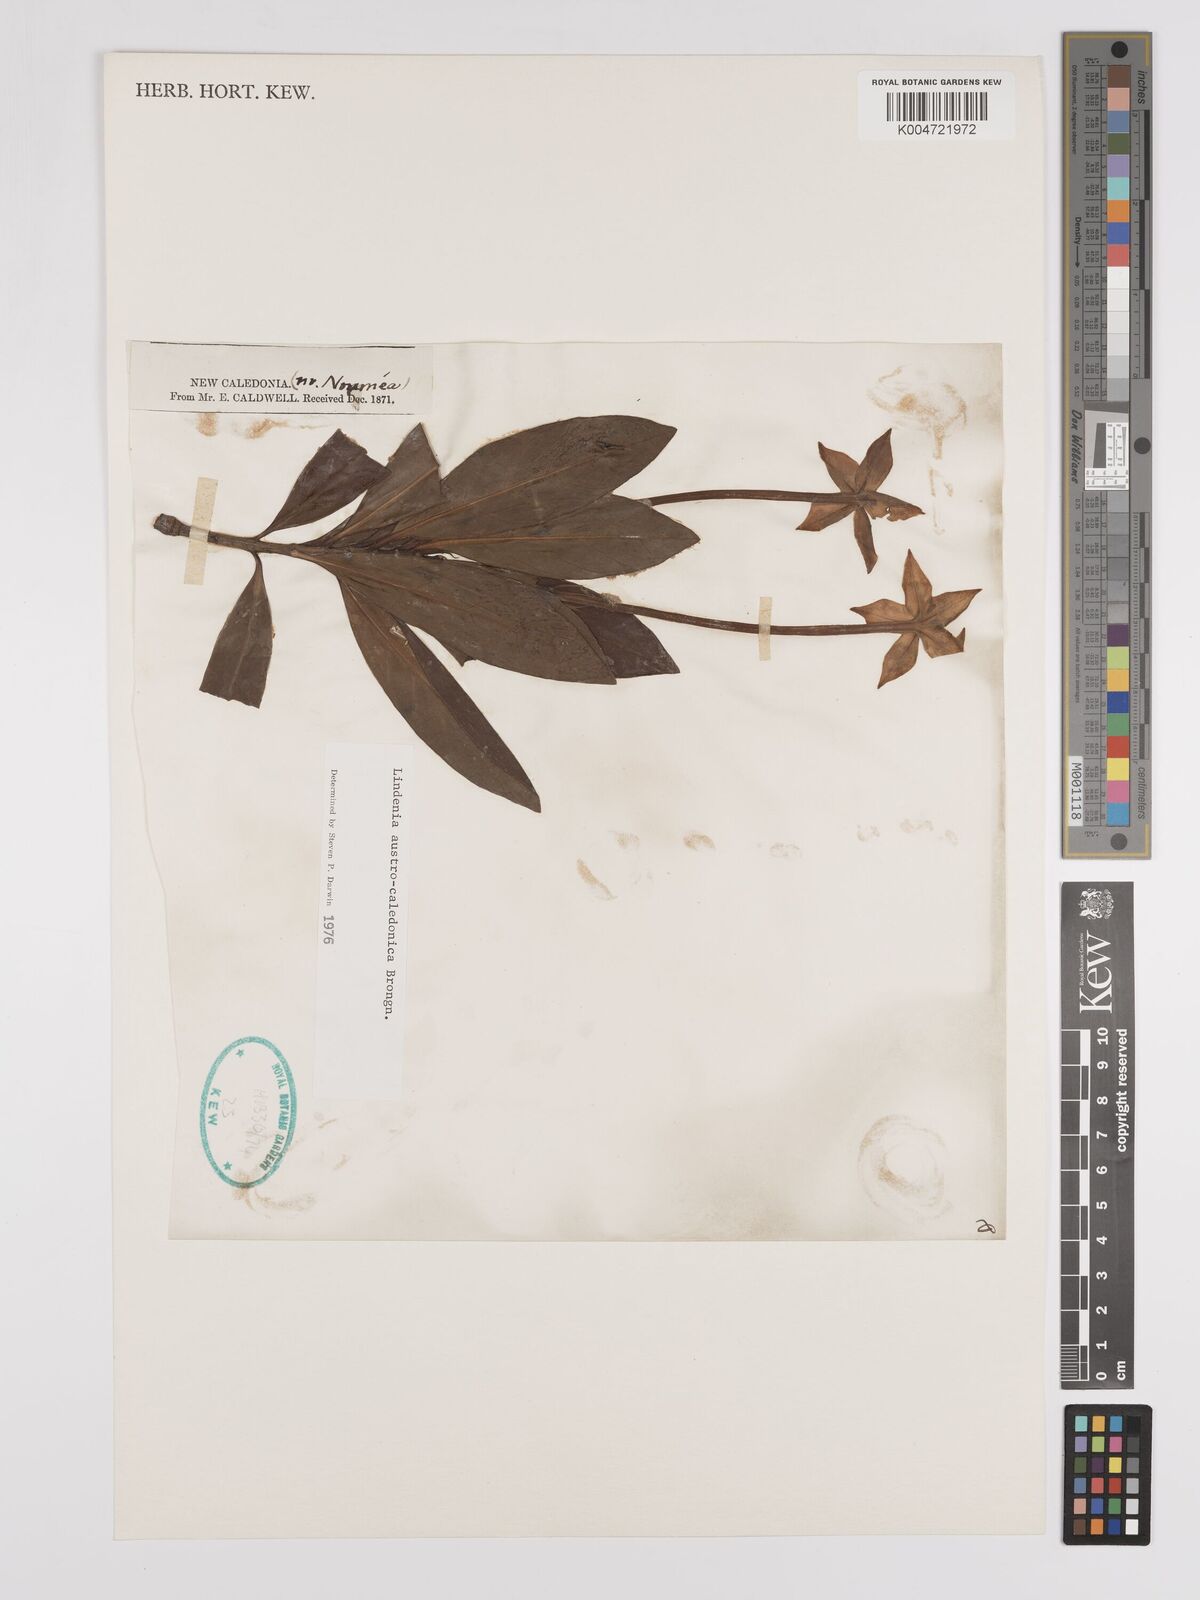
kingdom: Plantae
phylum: Tracheophyta
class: Magnoliopsida
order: Gentianales
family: Rubiaceae
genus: Augusta
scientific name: Augusta austrocaledonica
